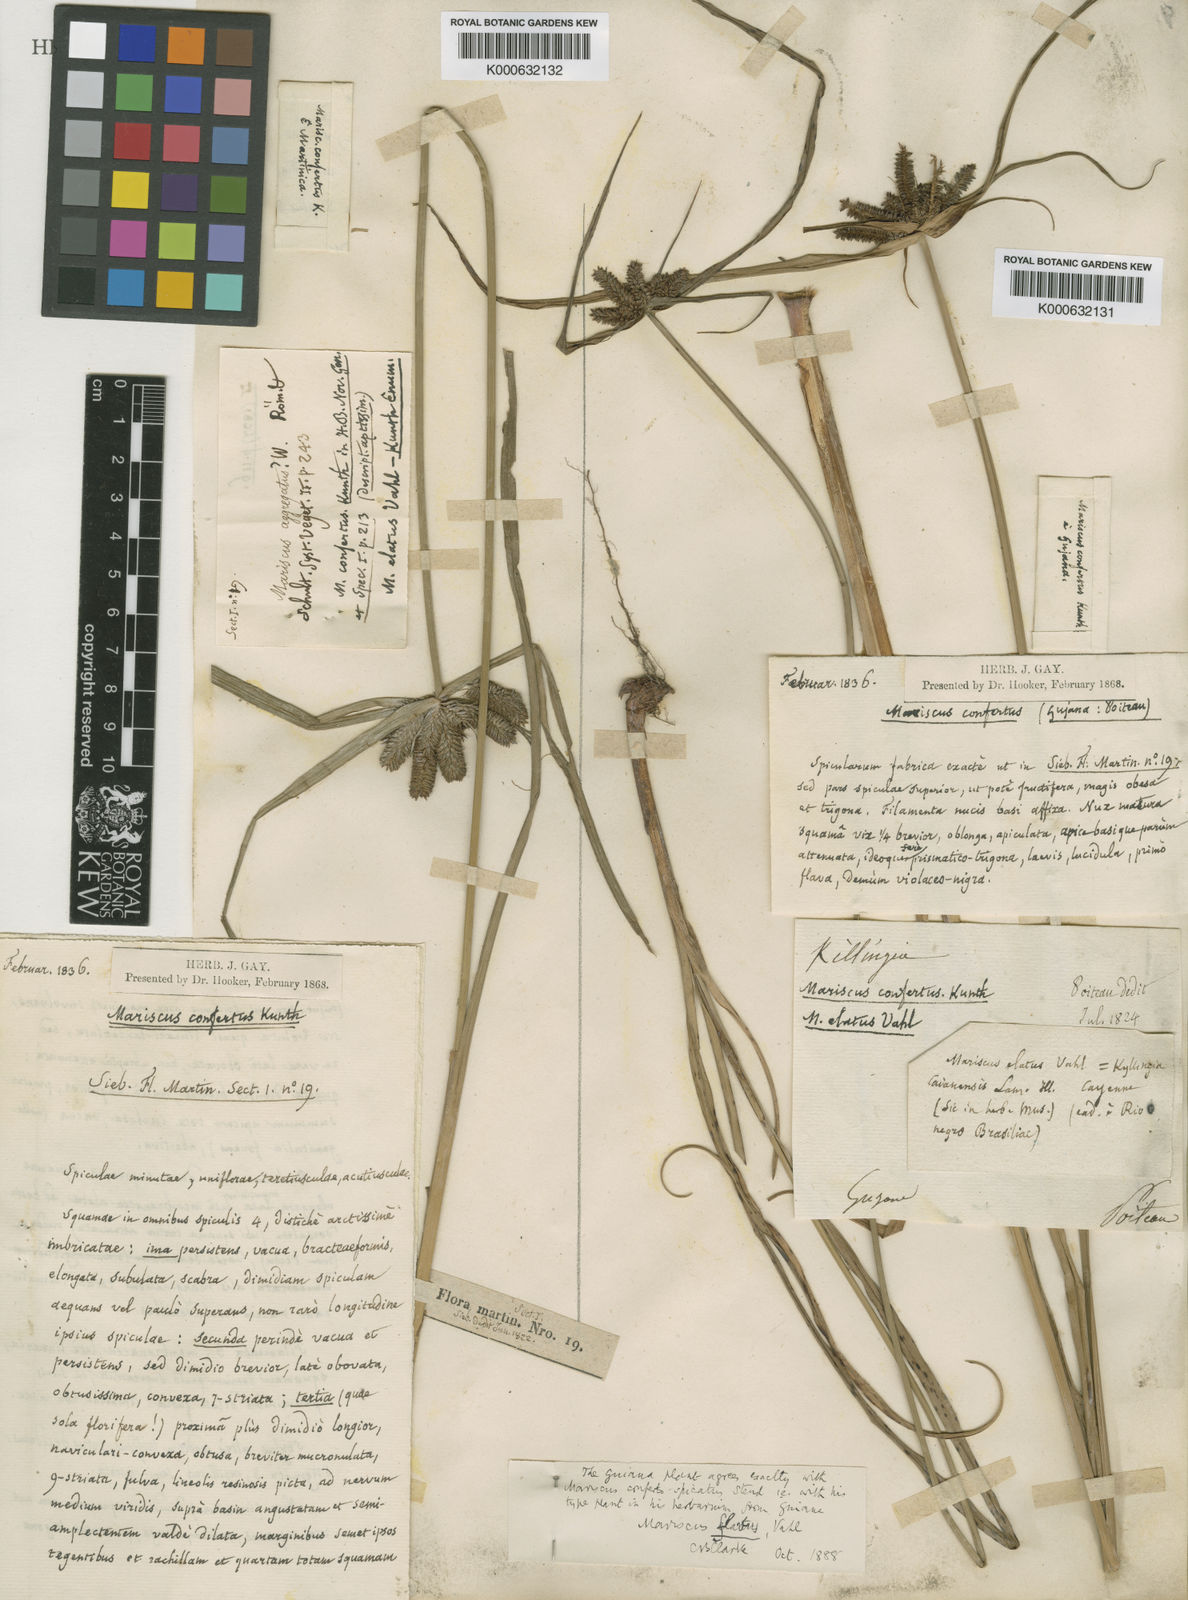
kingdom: Plantae
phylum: Tracheophyta
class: Liliopsida
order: Poales
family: Cyperaceae
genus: Cyperus
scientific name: Cyperus aggregatus
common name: Inflatedscale flatsedge
